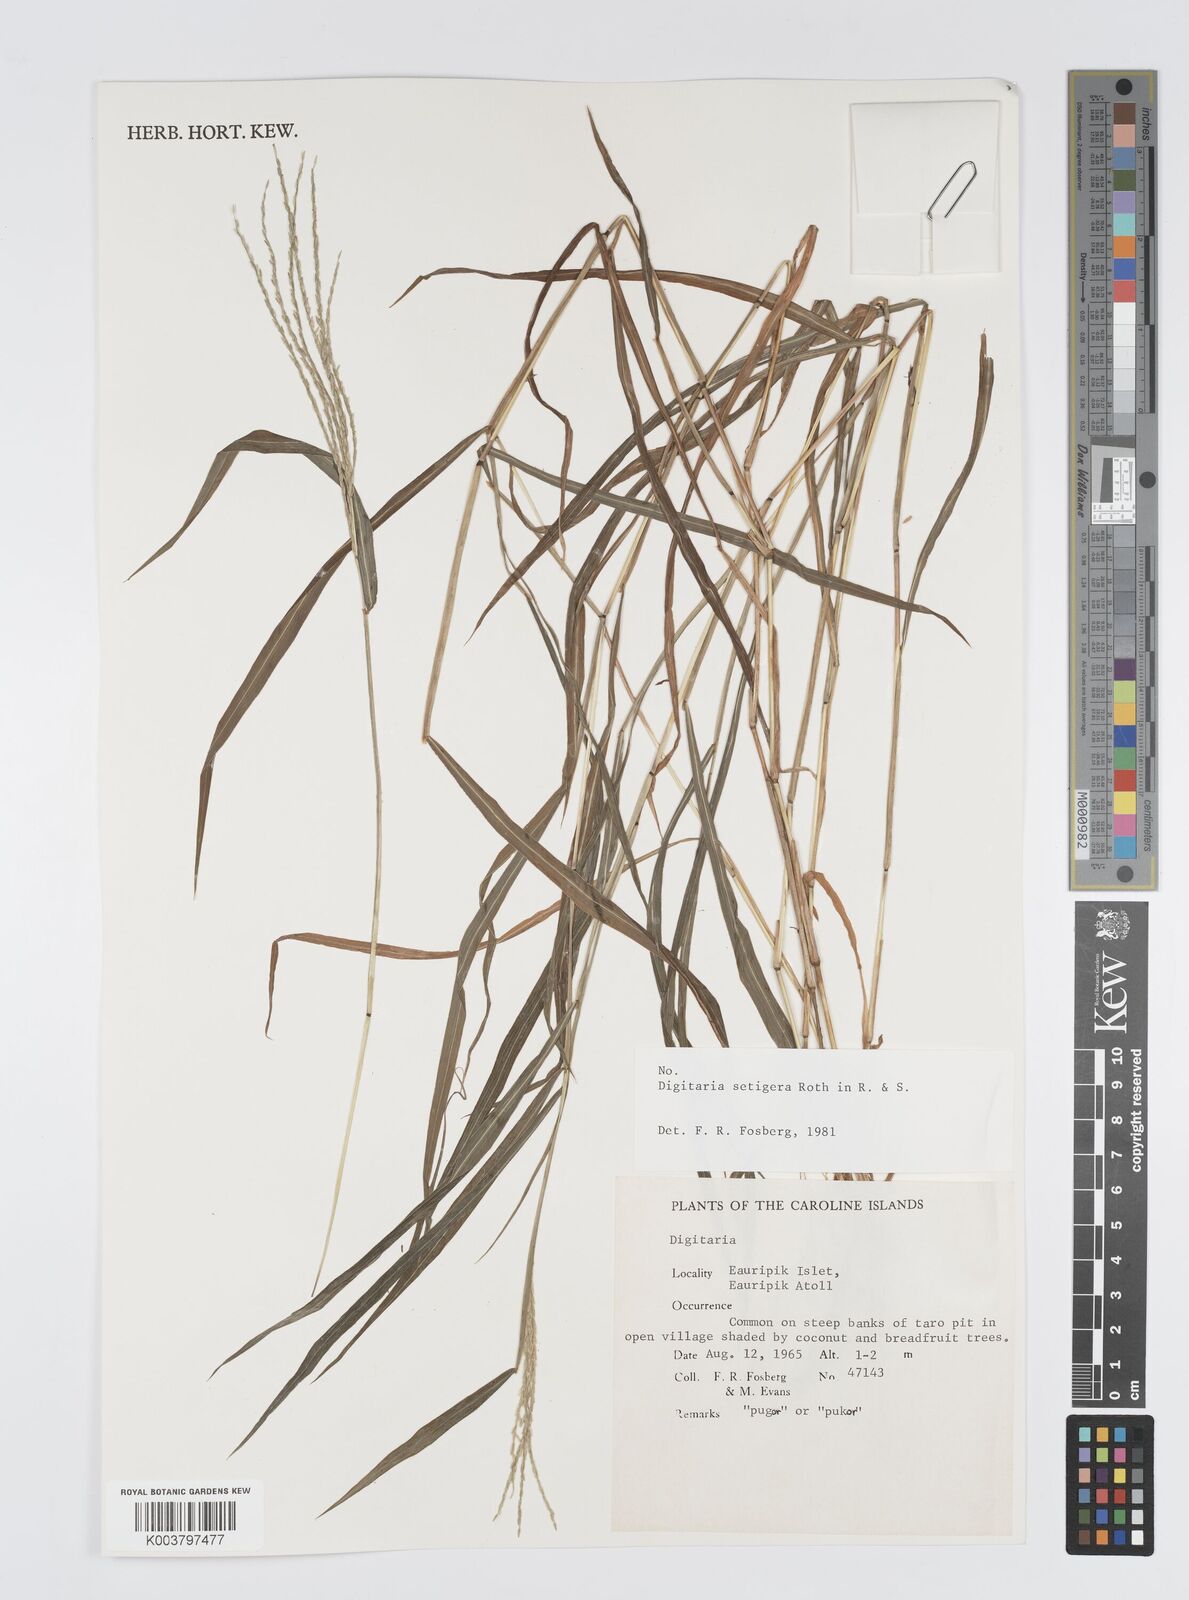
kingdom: Plantae
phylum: Tracheophyta
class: Liliopsida
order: Poales
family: Poaceae
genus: Digitaria
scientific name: Digitaria setigera
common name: East indian crabgrass
